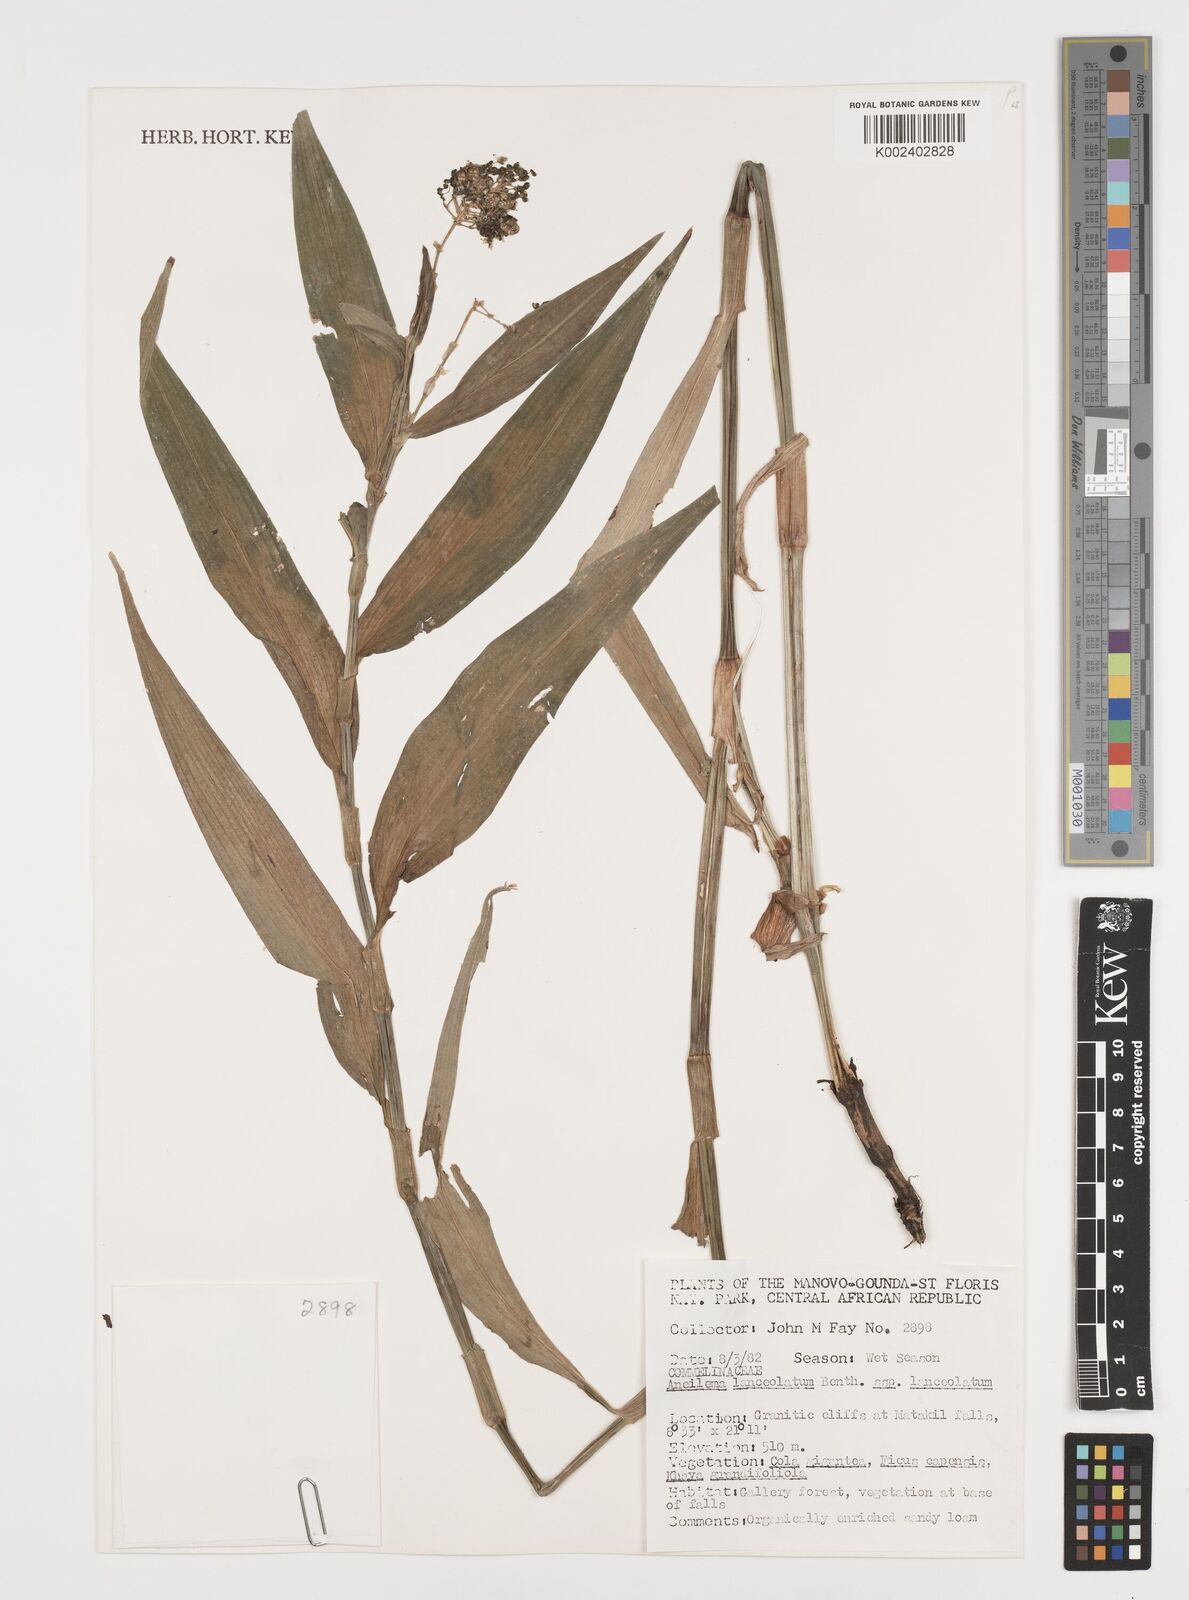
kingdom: Plantae
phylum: Tracheophyta
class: Liliopsida
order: Commelinales
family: Commelinaceae
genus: Aneilema
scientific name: Aneilema lanceolatum
